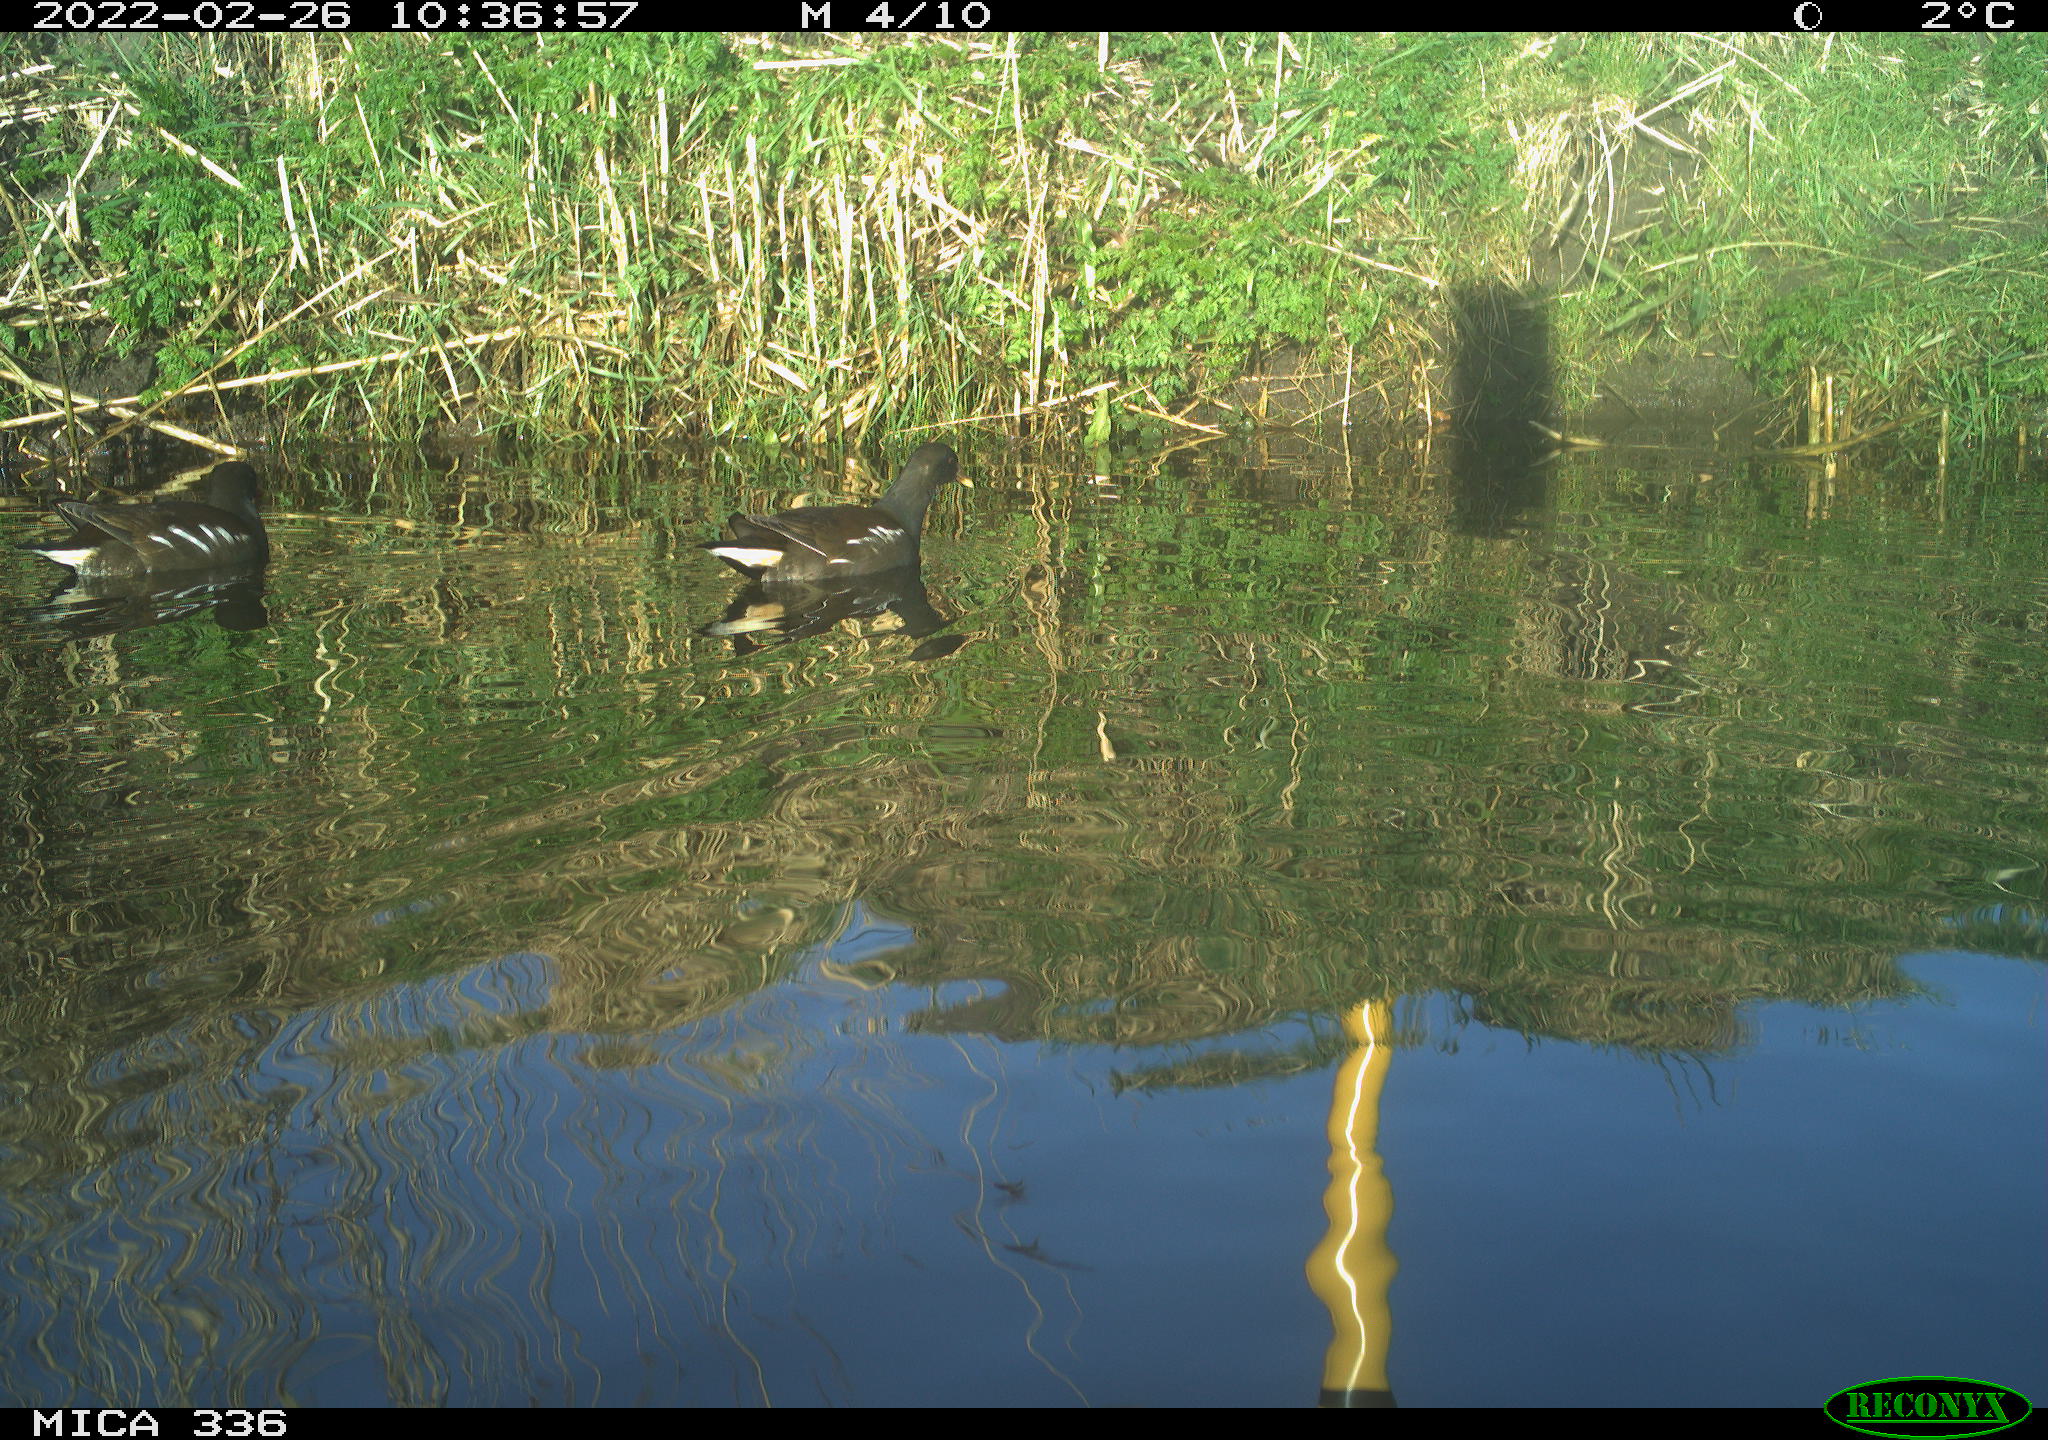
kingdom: Animalia
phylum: Chordata
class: Aves
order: Gruiformes
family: Rallidae
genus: Gallinula
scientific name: Gallinula chloropus
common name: Common moorhen
